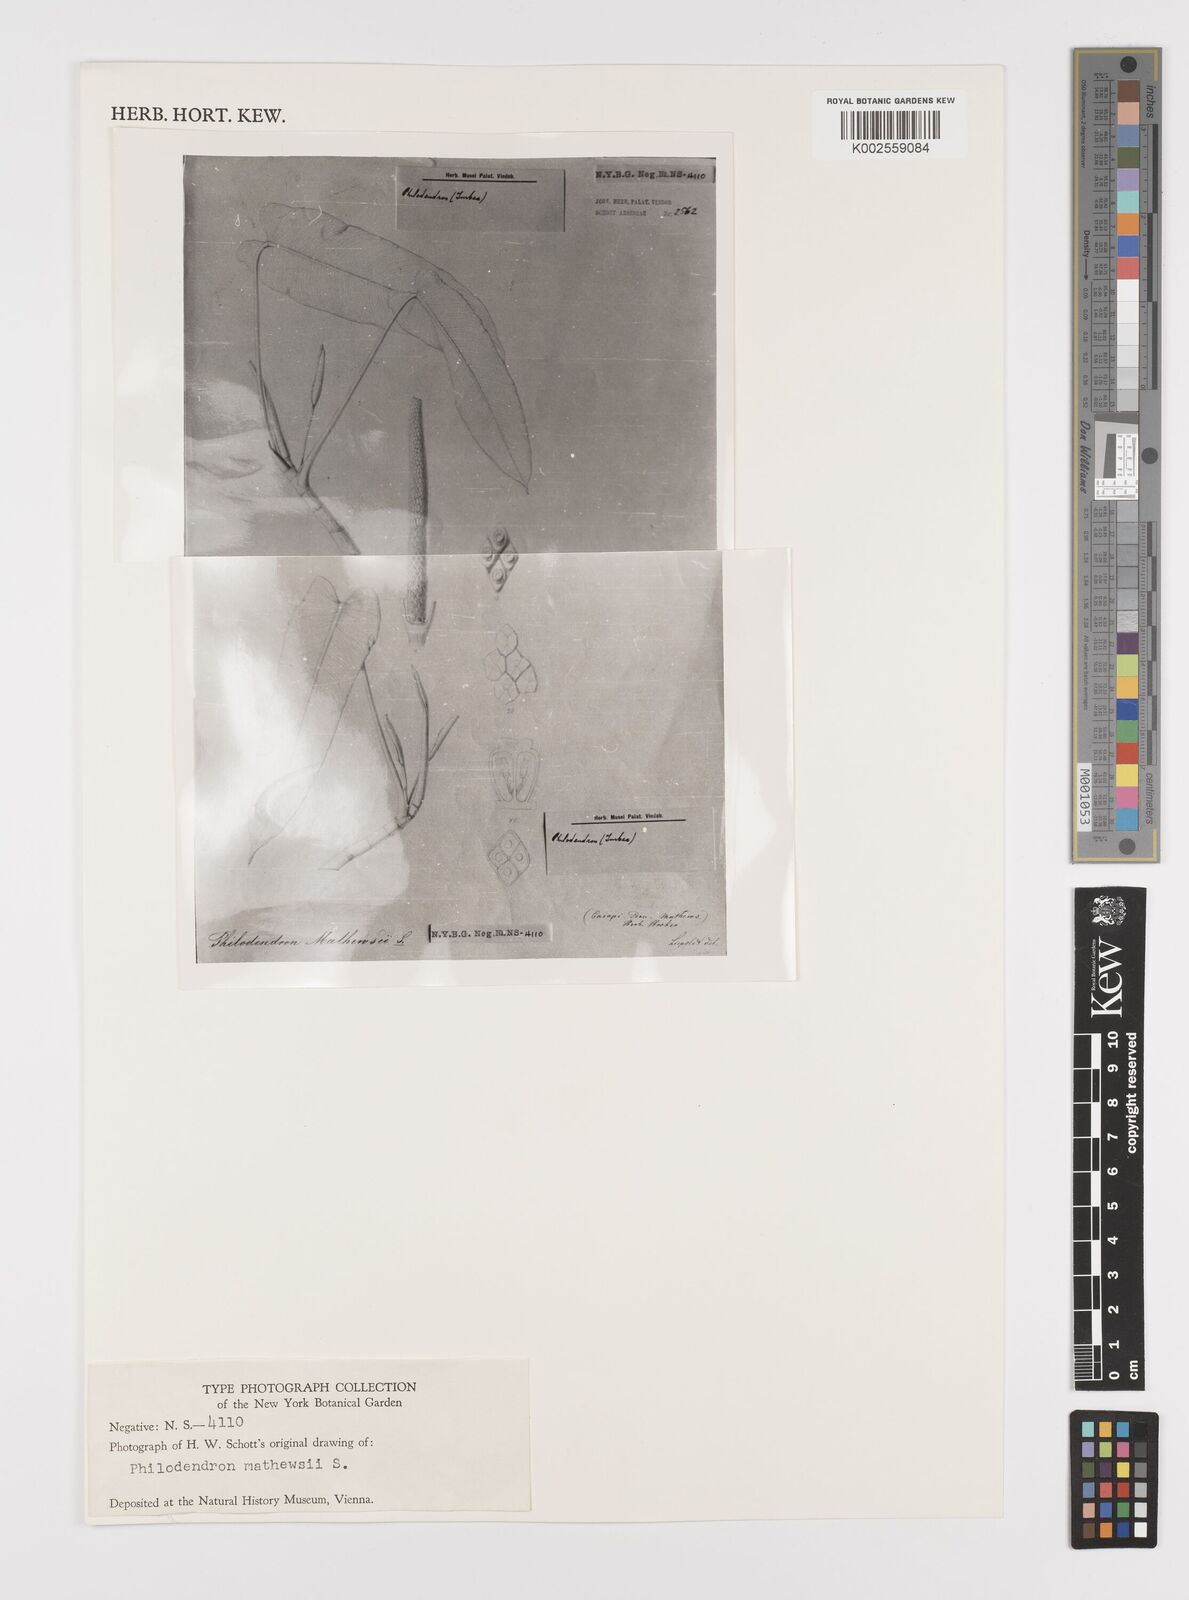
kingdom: Plantae
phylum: Tracheophyta
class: Liliopsida
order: Alismatales
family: Araceae
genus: Philodendron
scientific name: Philodendron mathewsii
